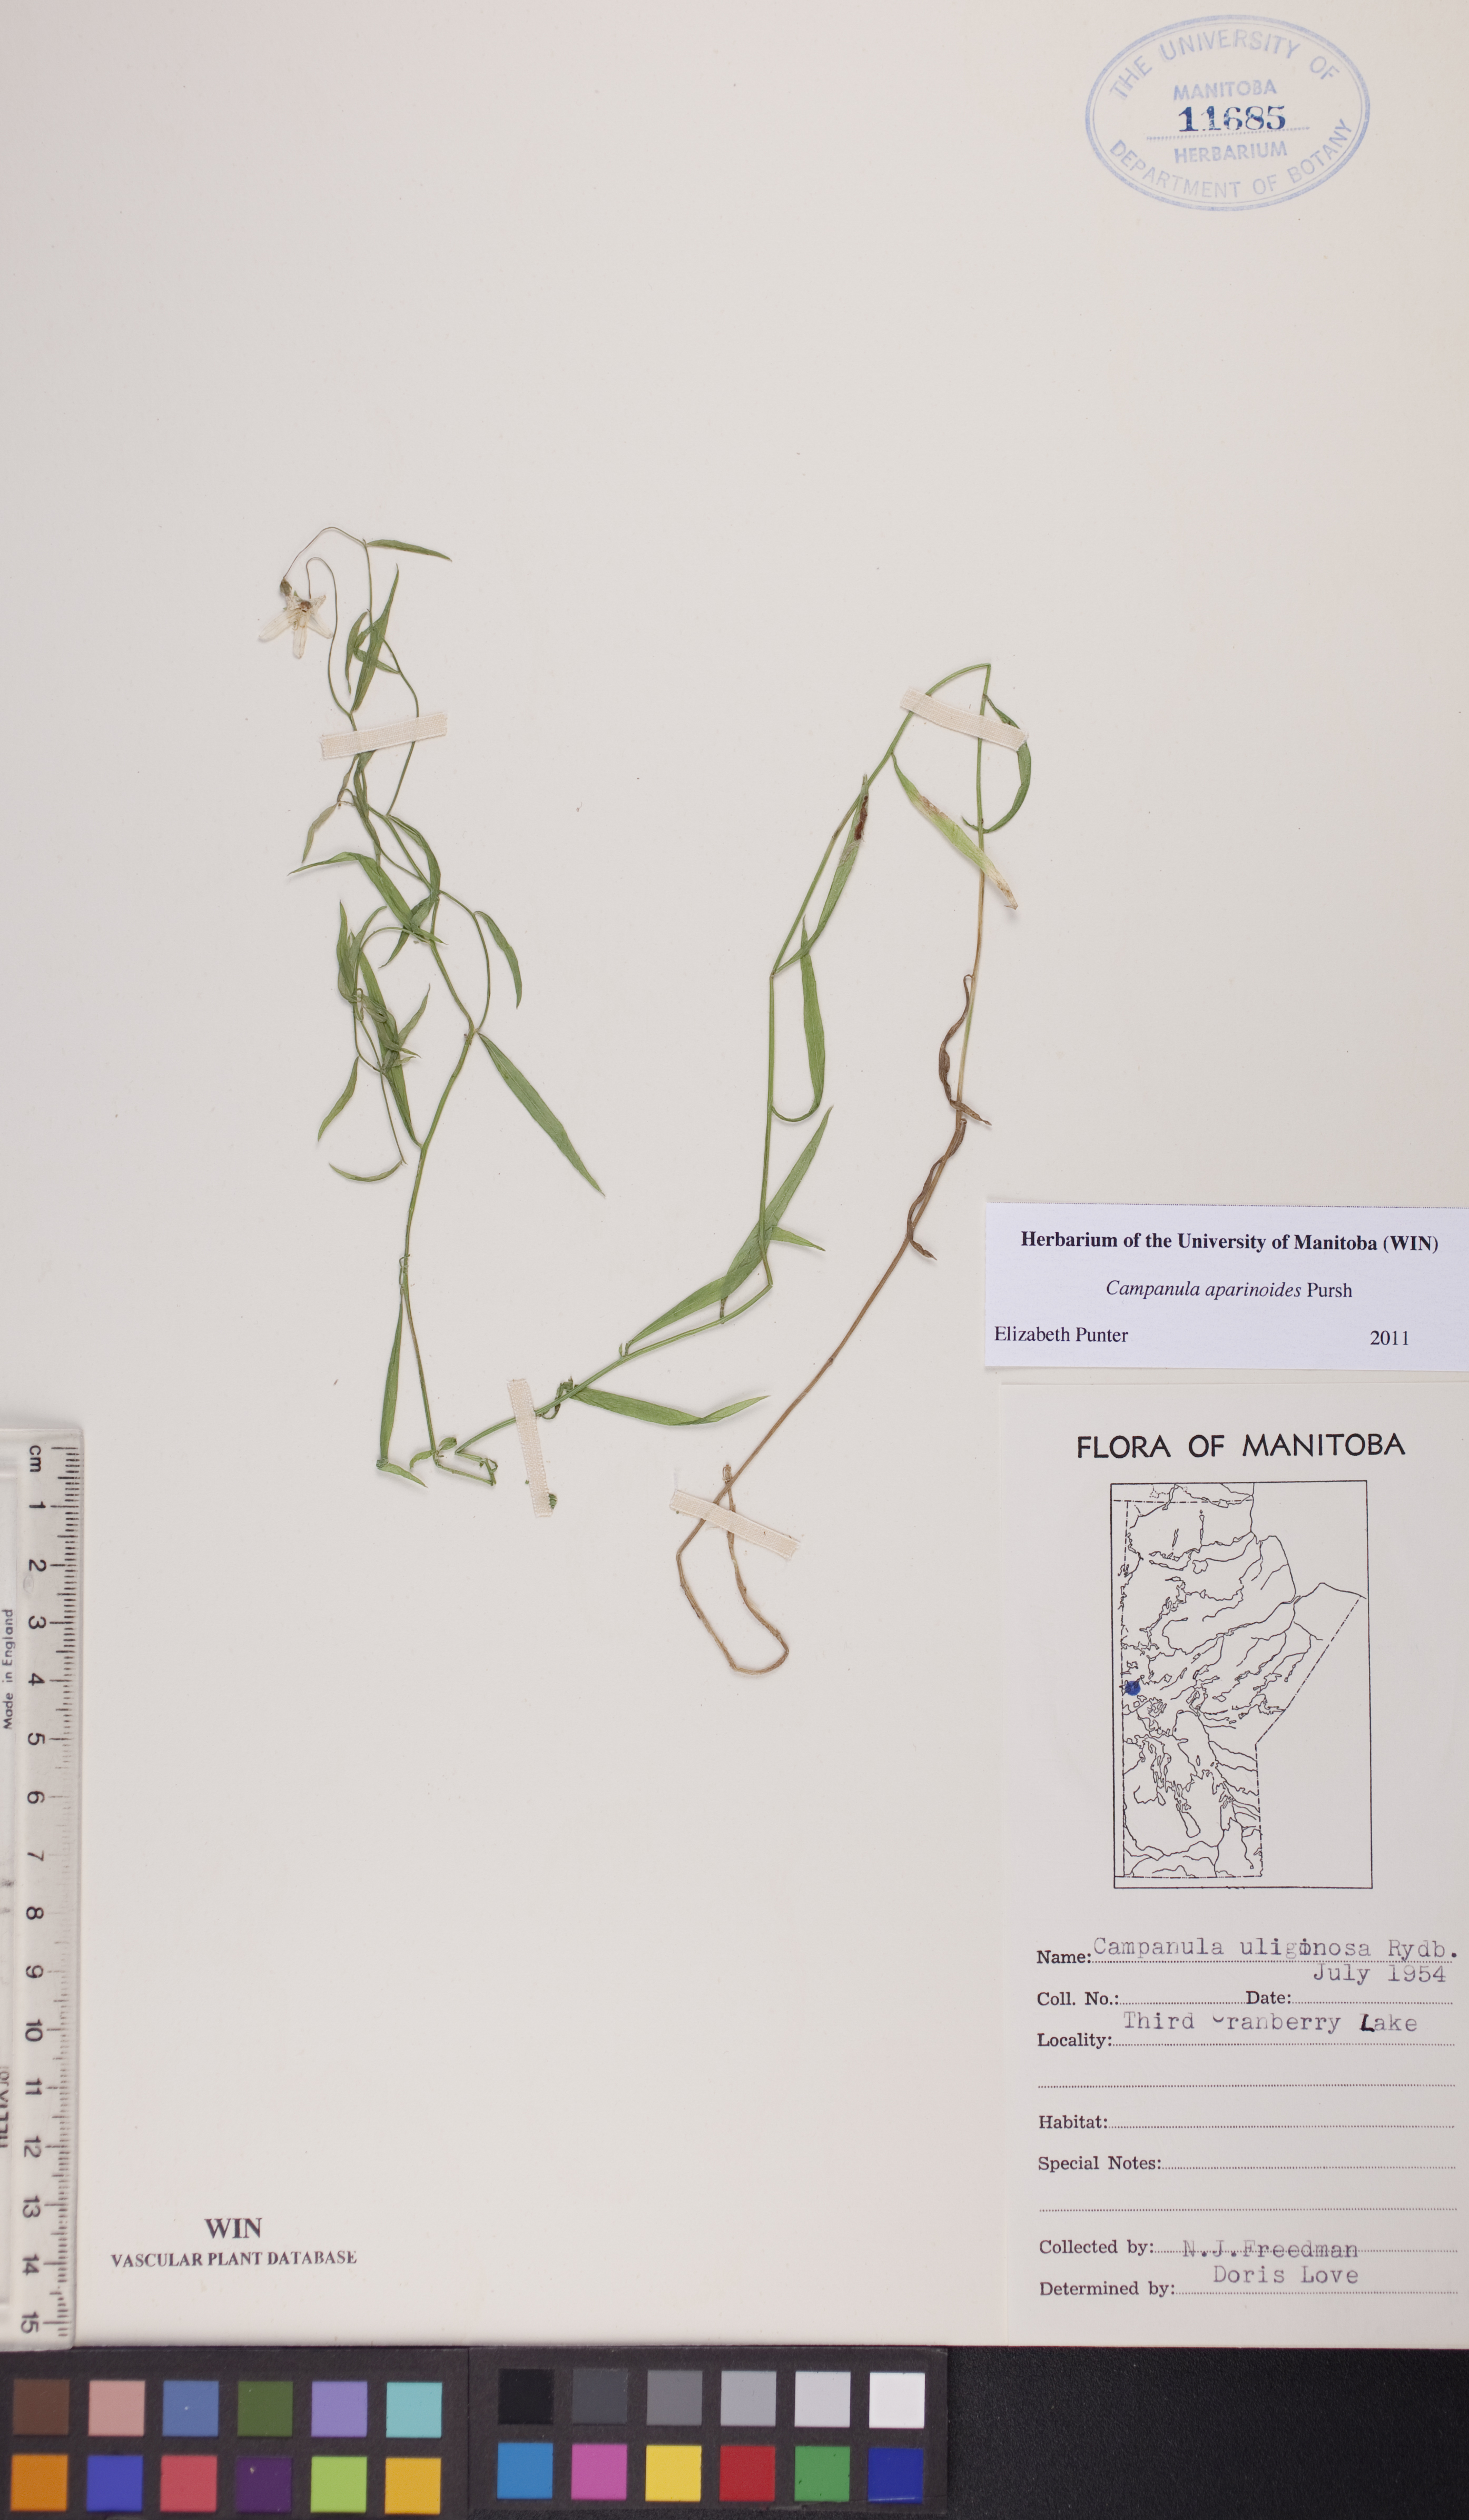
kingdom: Plantae
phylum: Tracheophyta
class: Magnoliopsida
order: Asterales
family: Campanulaceae
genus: Palustricodon
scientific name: Palustricodon aparinoides
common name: Bedstraw bellflower
